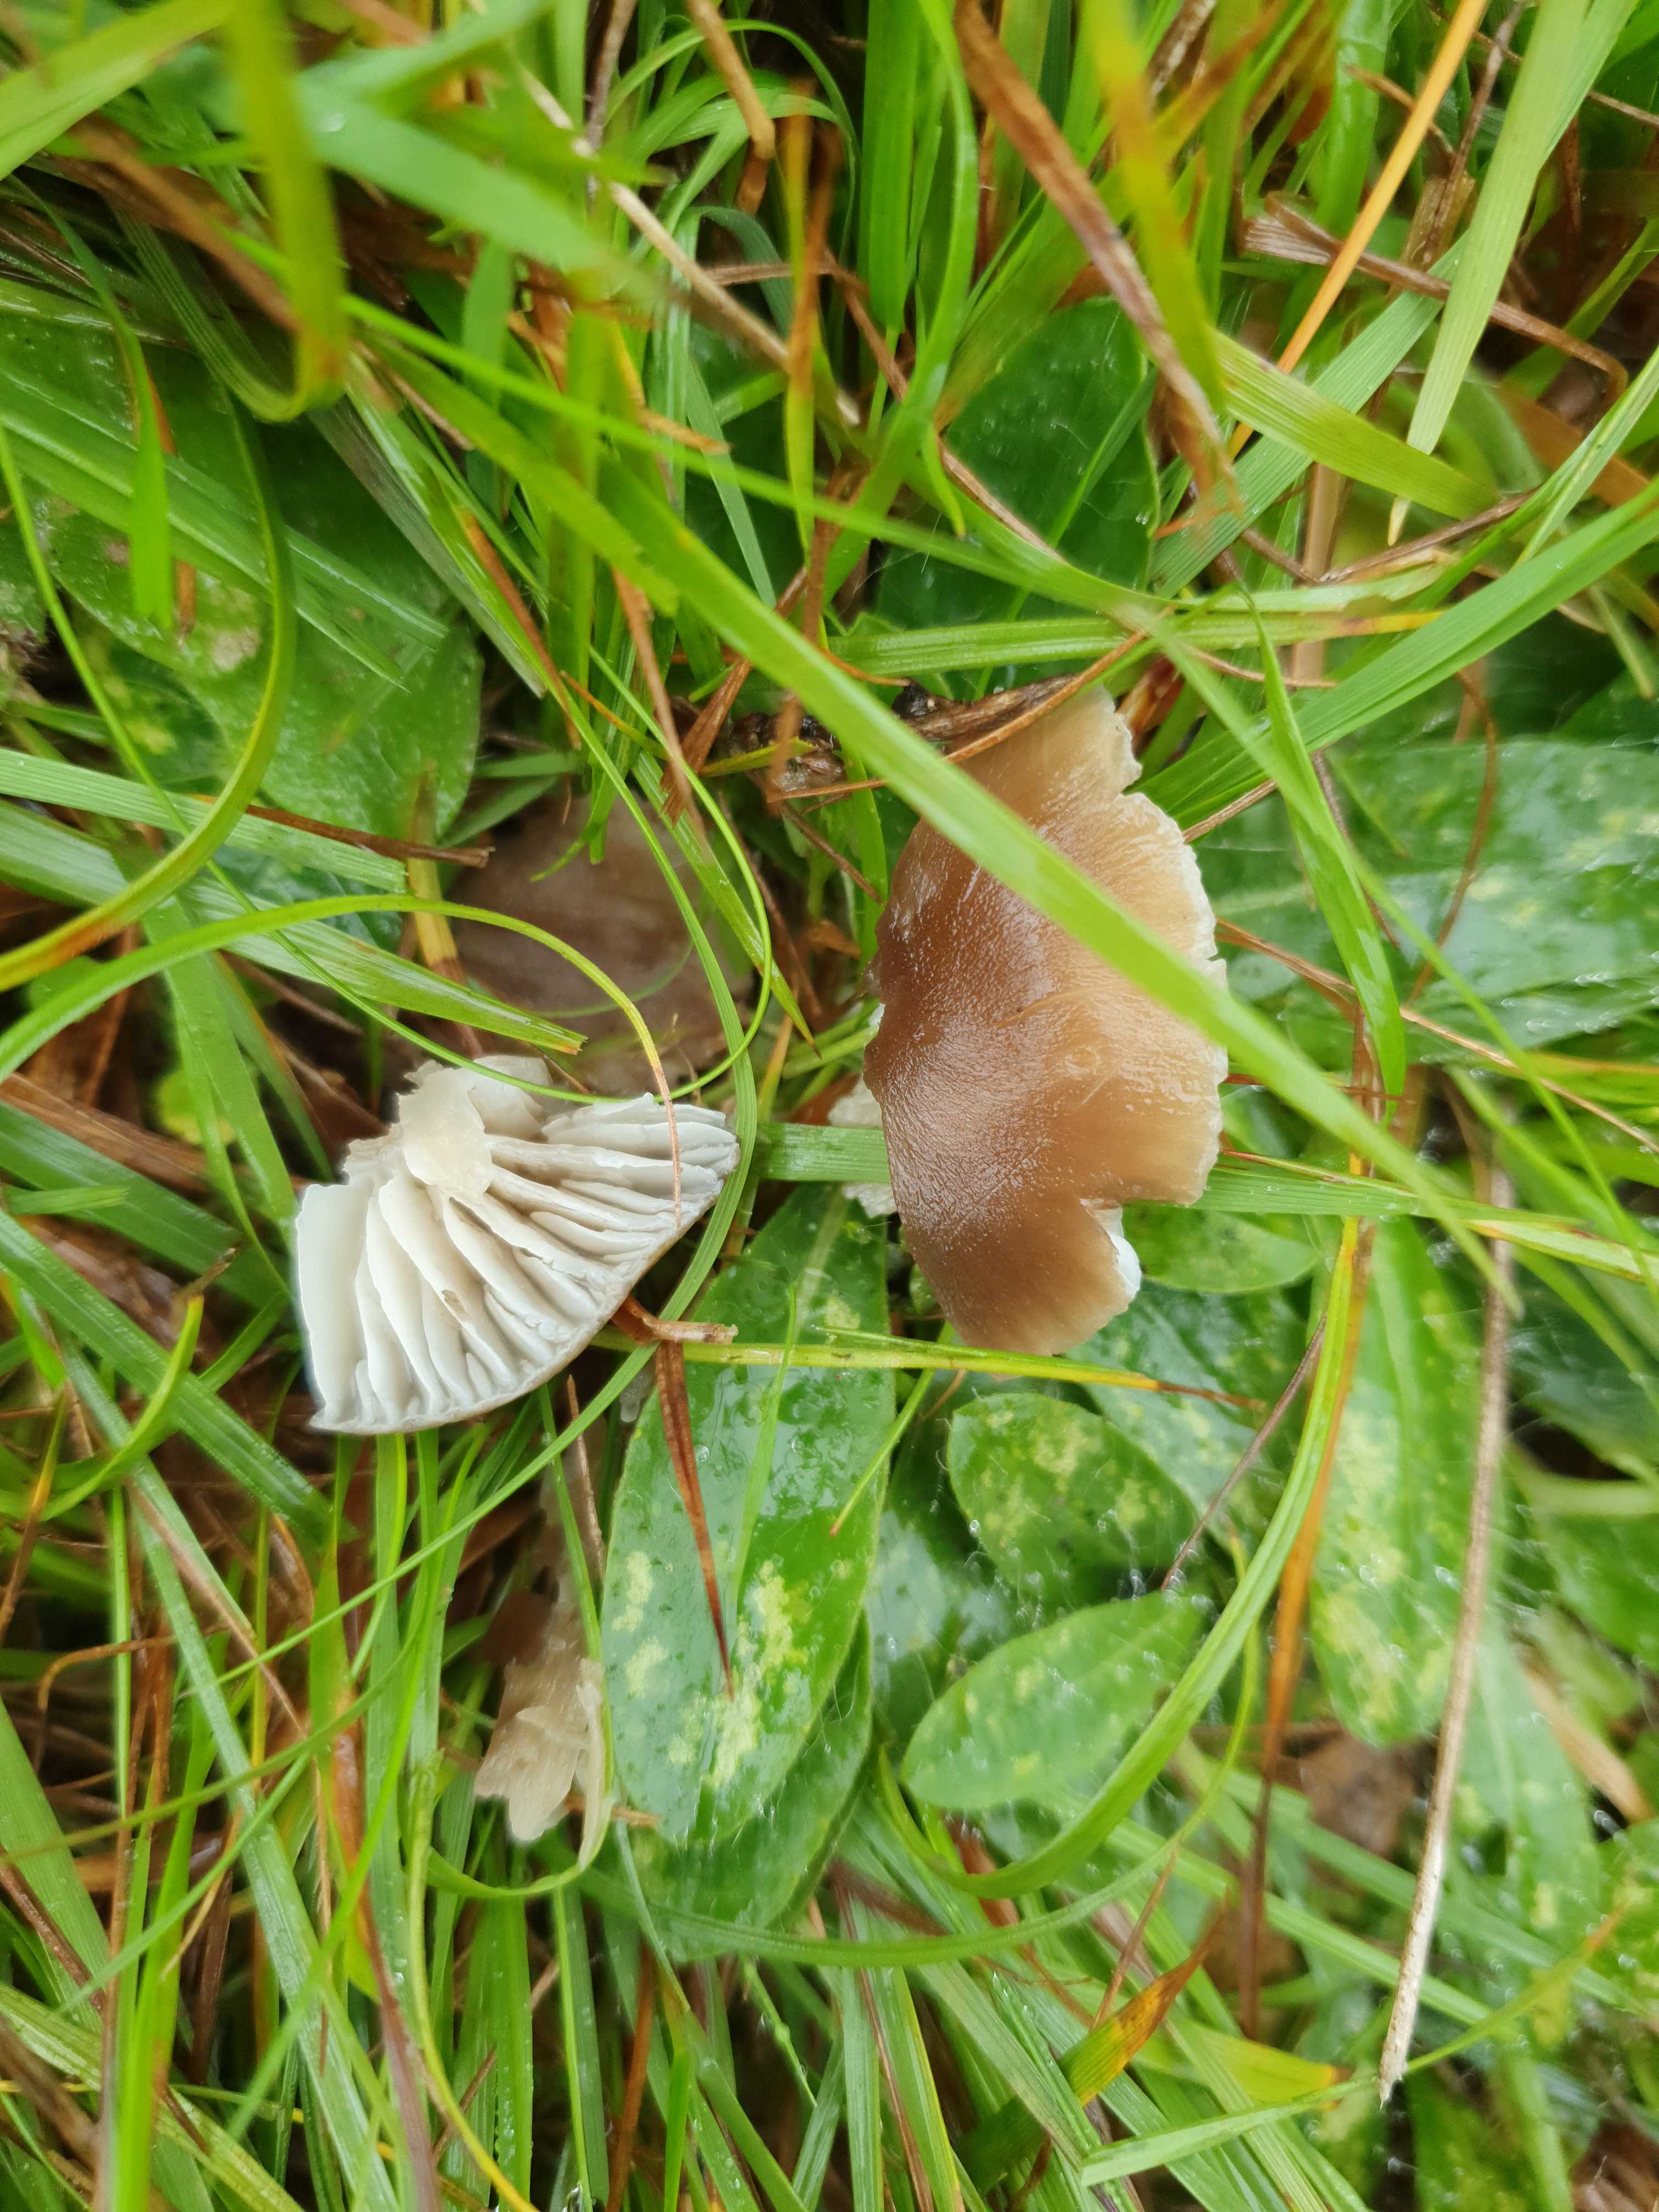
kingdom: Fungi
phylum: Basidiomycota
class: Agaricomycetes
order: Agaricales
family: Hygrophoraceae
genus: Neohygrocybe
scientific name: Neohygrocybe nitrata
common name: stinkende vokshat
